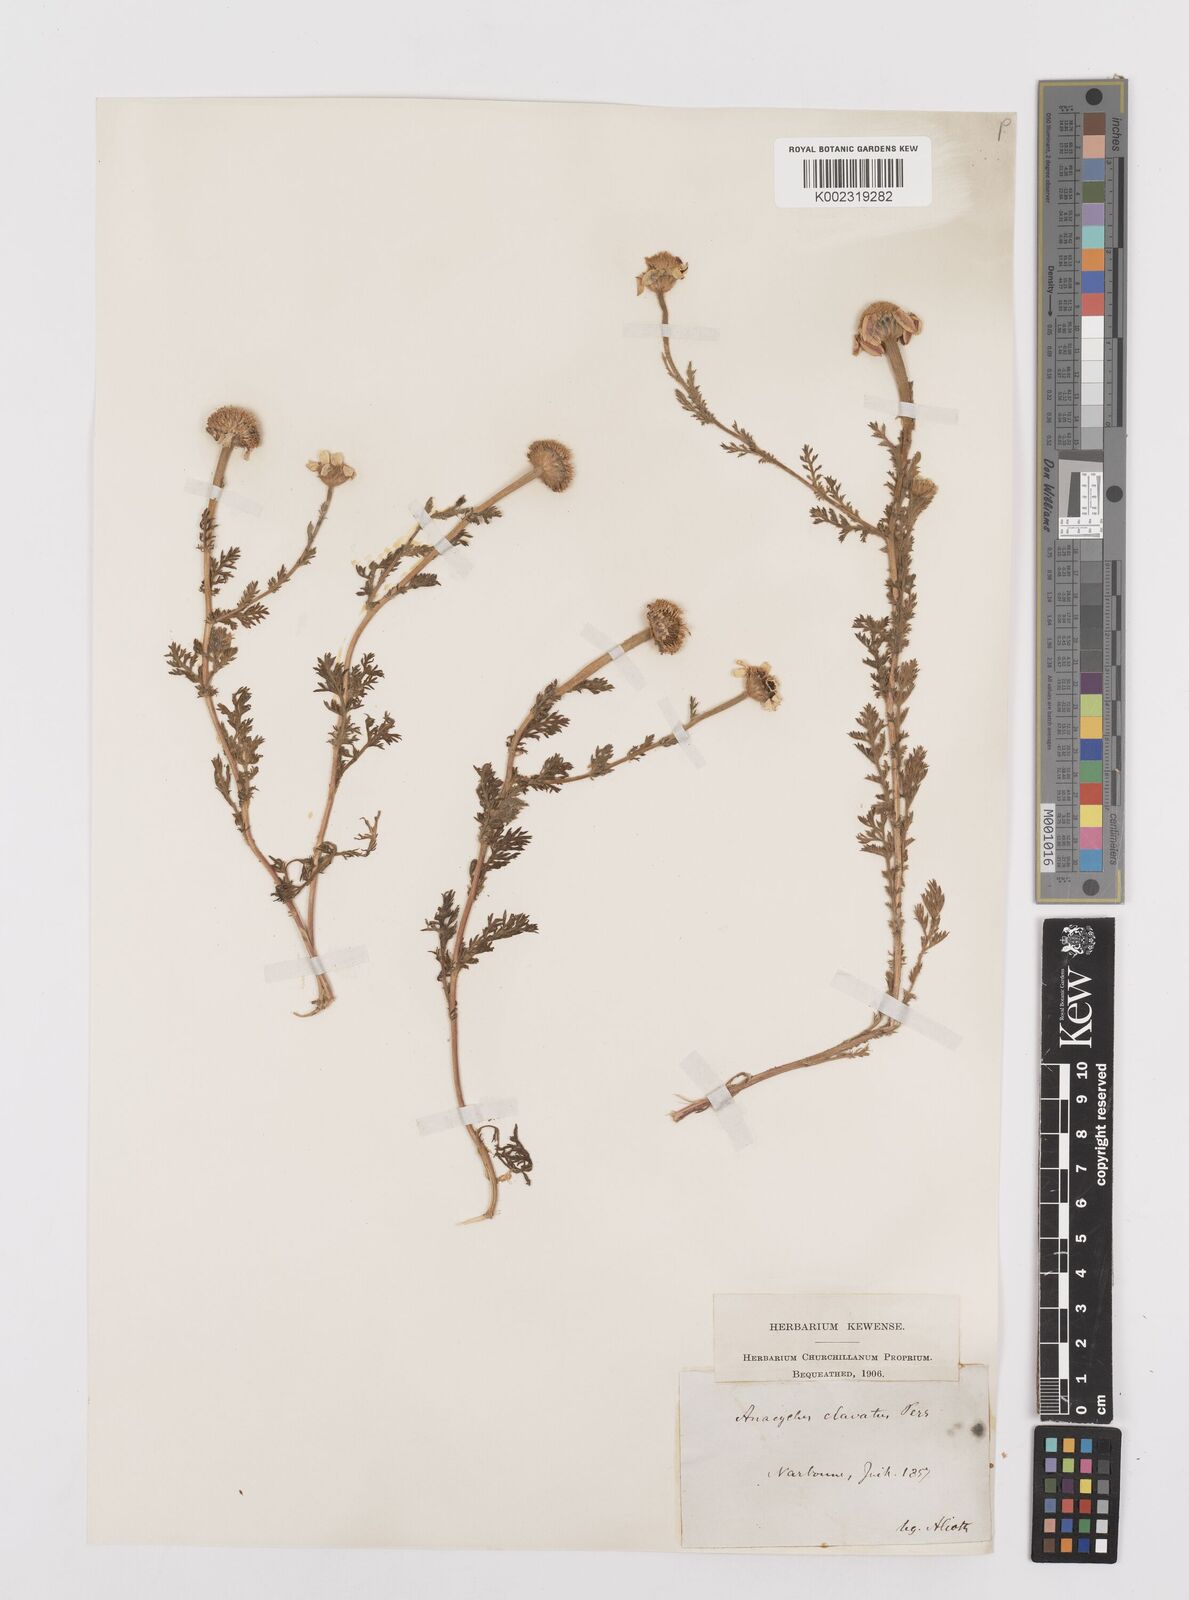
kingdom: Plantae
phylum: Tracheophyta
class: Magnoliopsida
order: Asterales
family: Asteraceae
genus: Anacyclus
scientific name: Anacyclus radiatus
